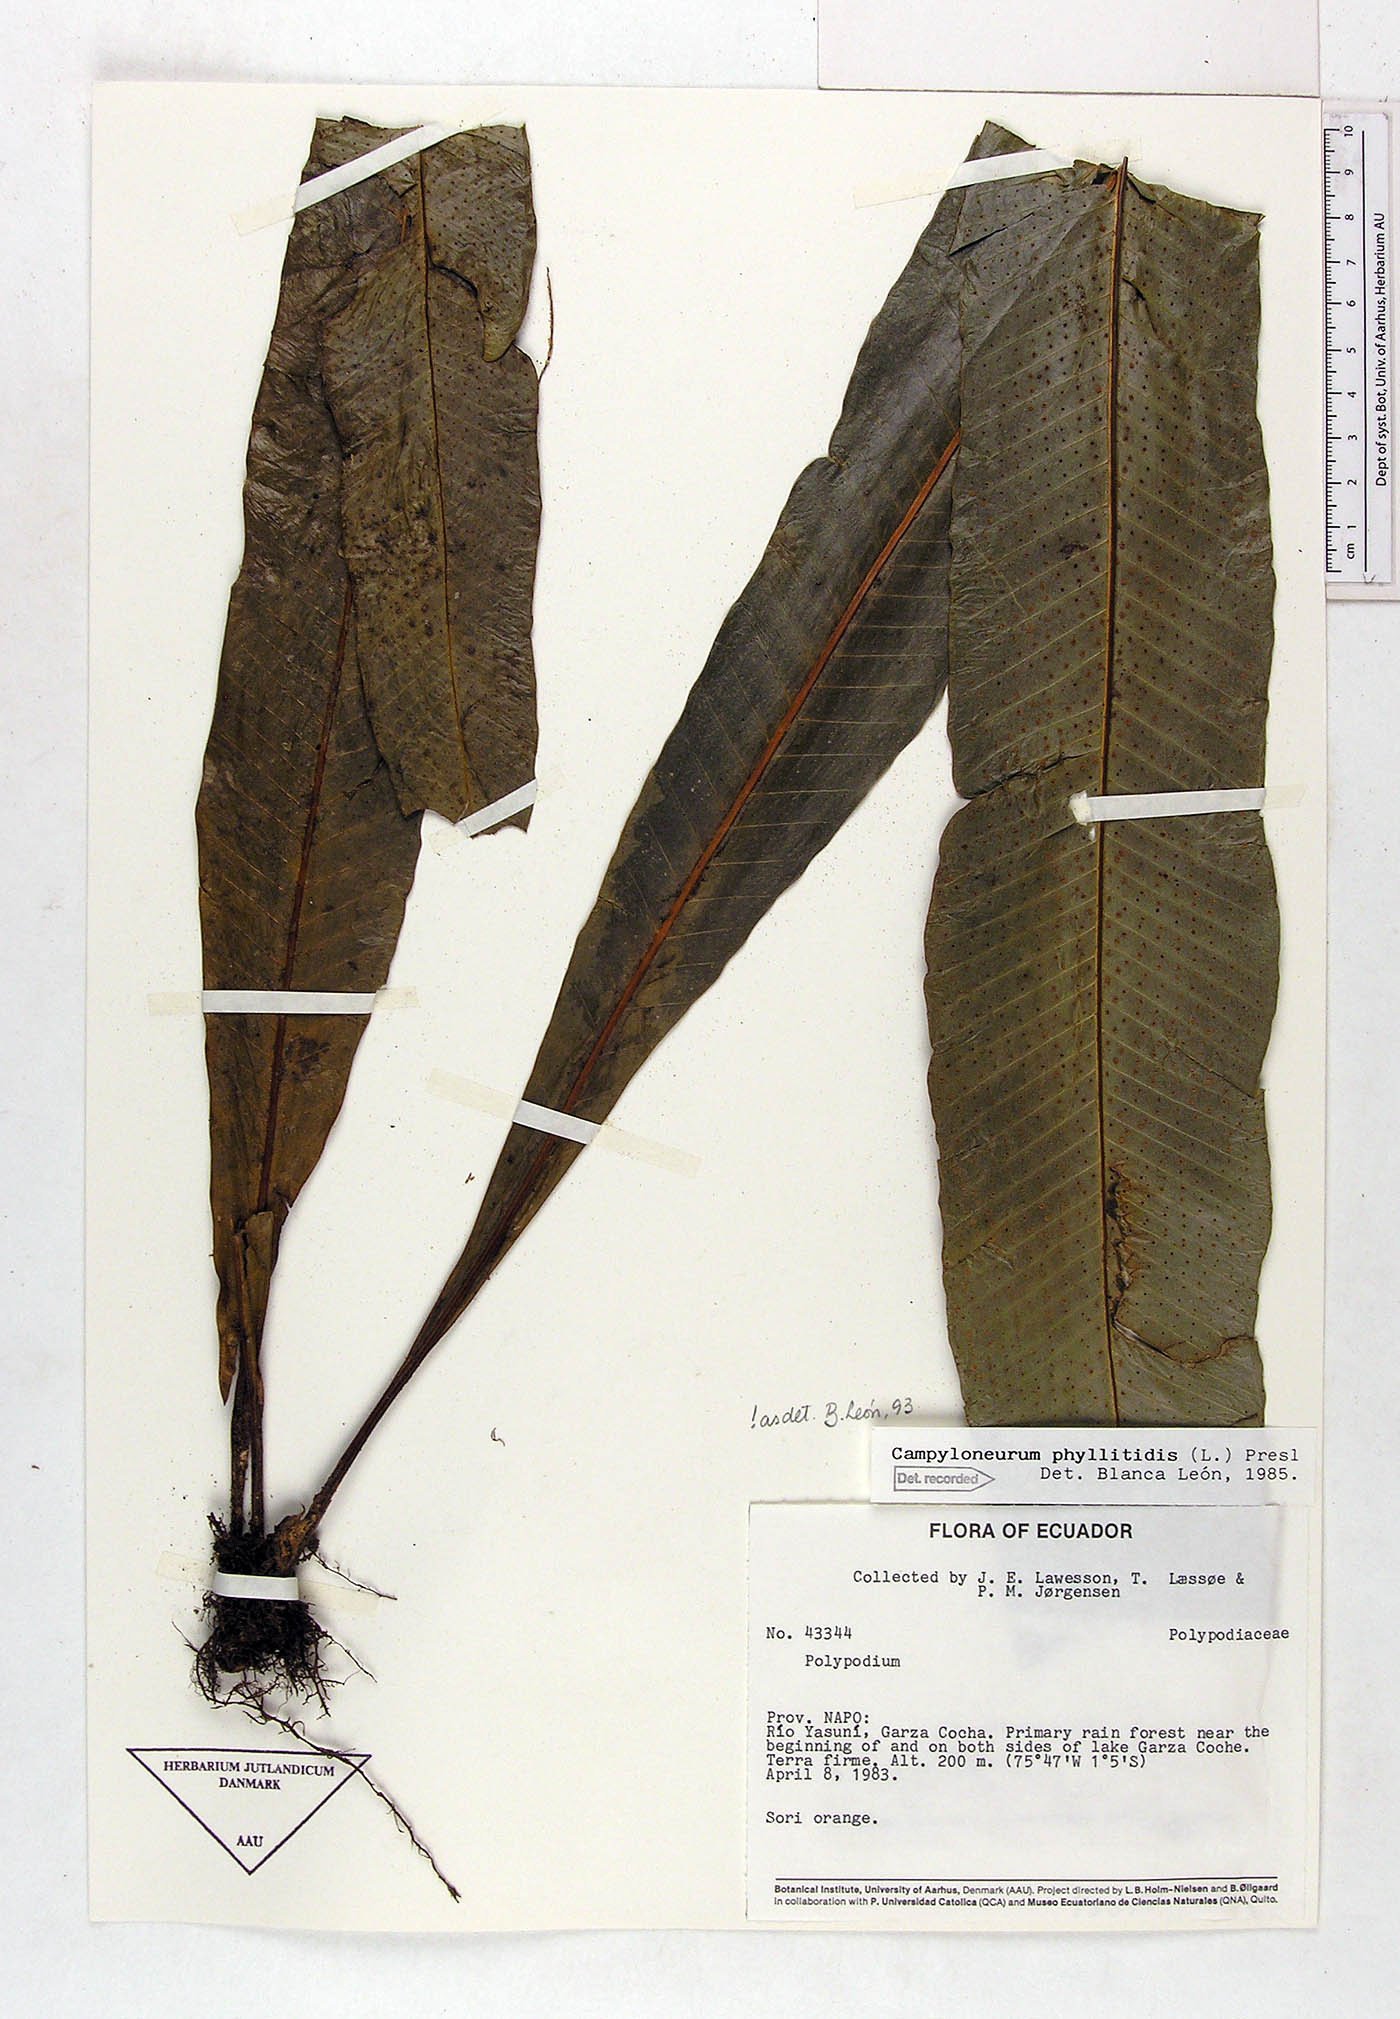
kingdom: Plantae
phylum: Tracheophyta
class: Polypodiopsida
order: Polypodiales
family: Polypodiaceae
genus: Campyloneurum
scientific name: Campyloneurum phyllitidis
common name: Cow-tongue fern
